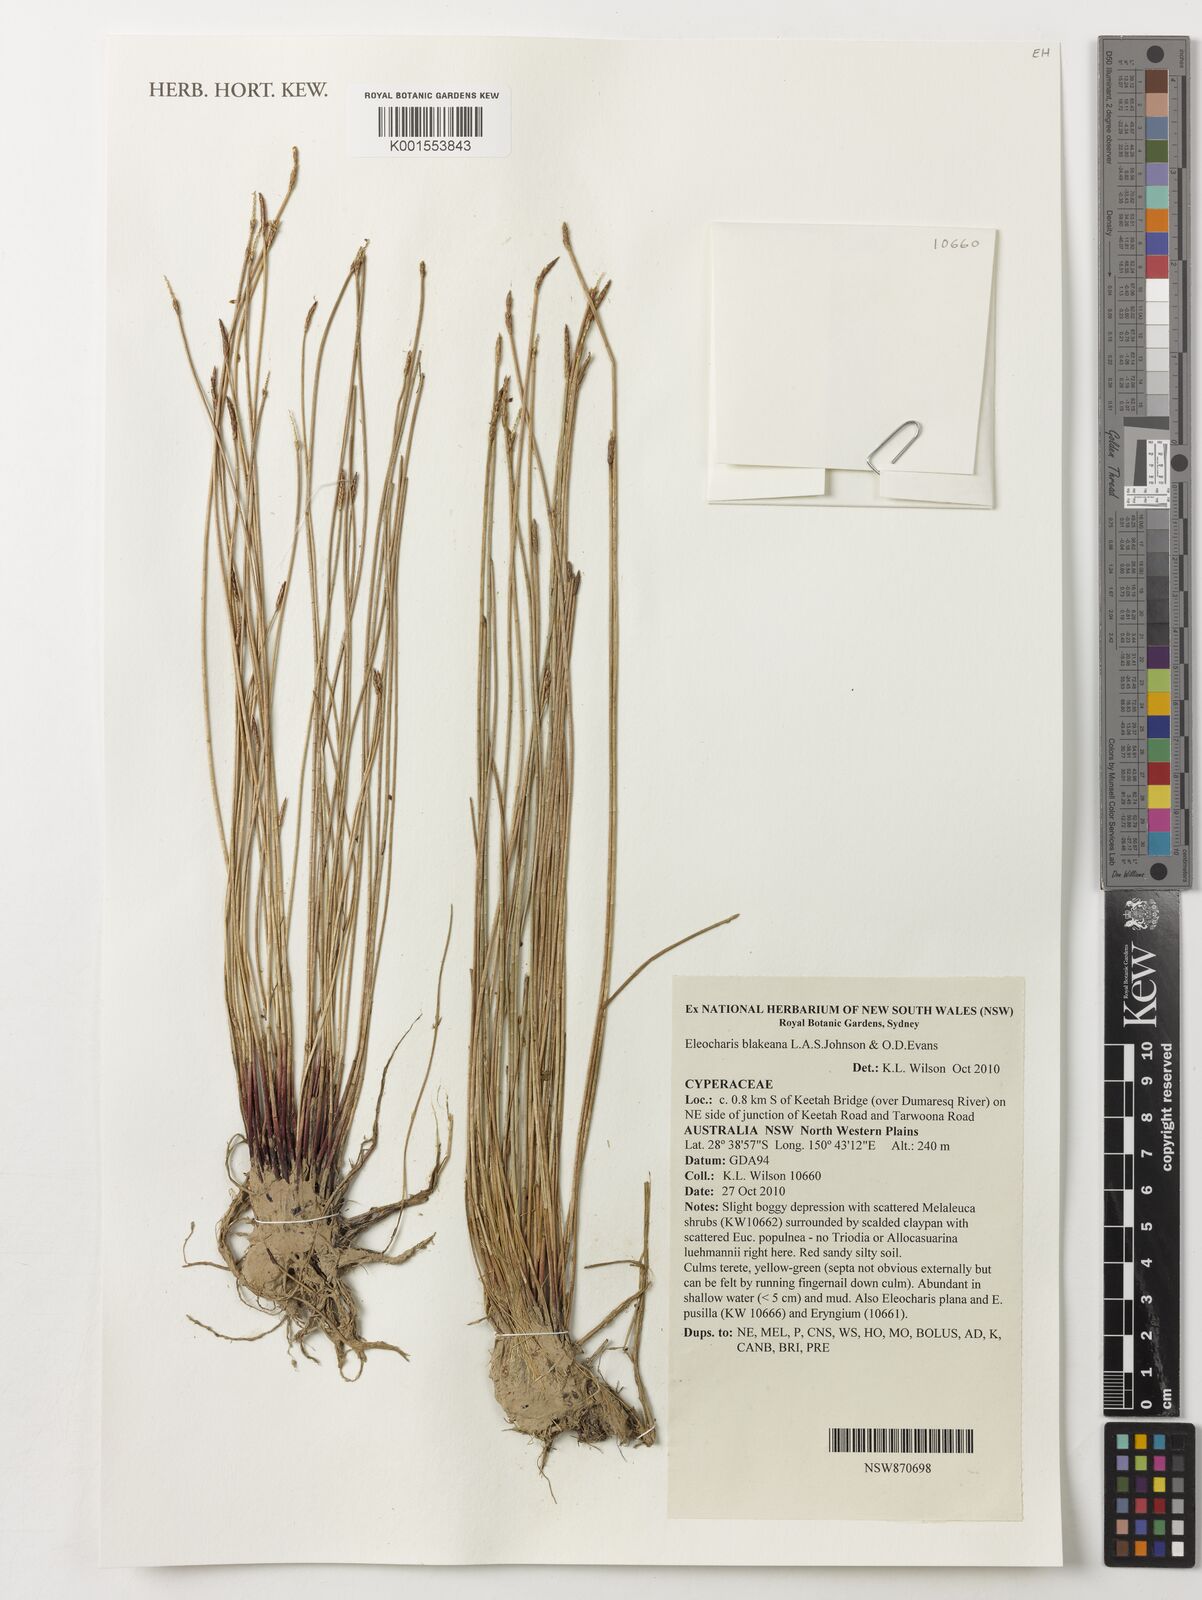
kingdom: Plantae
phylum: Tracheophyta
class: Liliopsida
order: Poales
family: Cyperaceae
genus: Eleocharis
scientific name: Eleocharis blakeana
